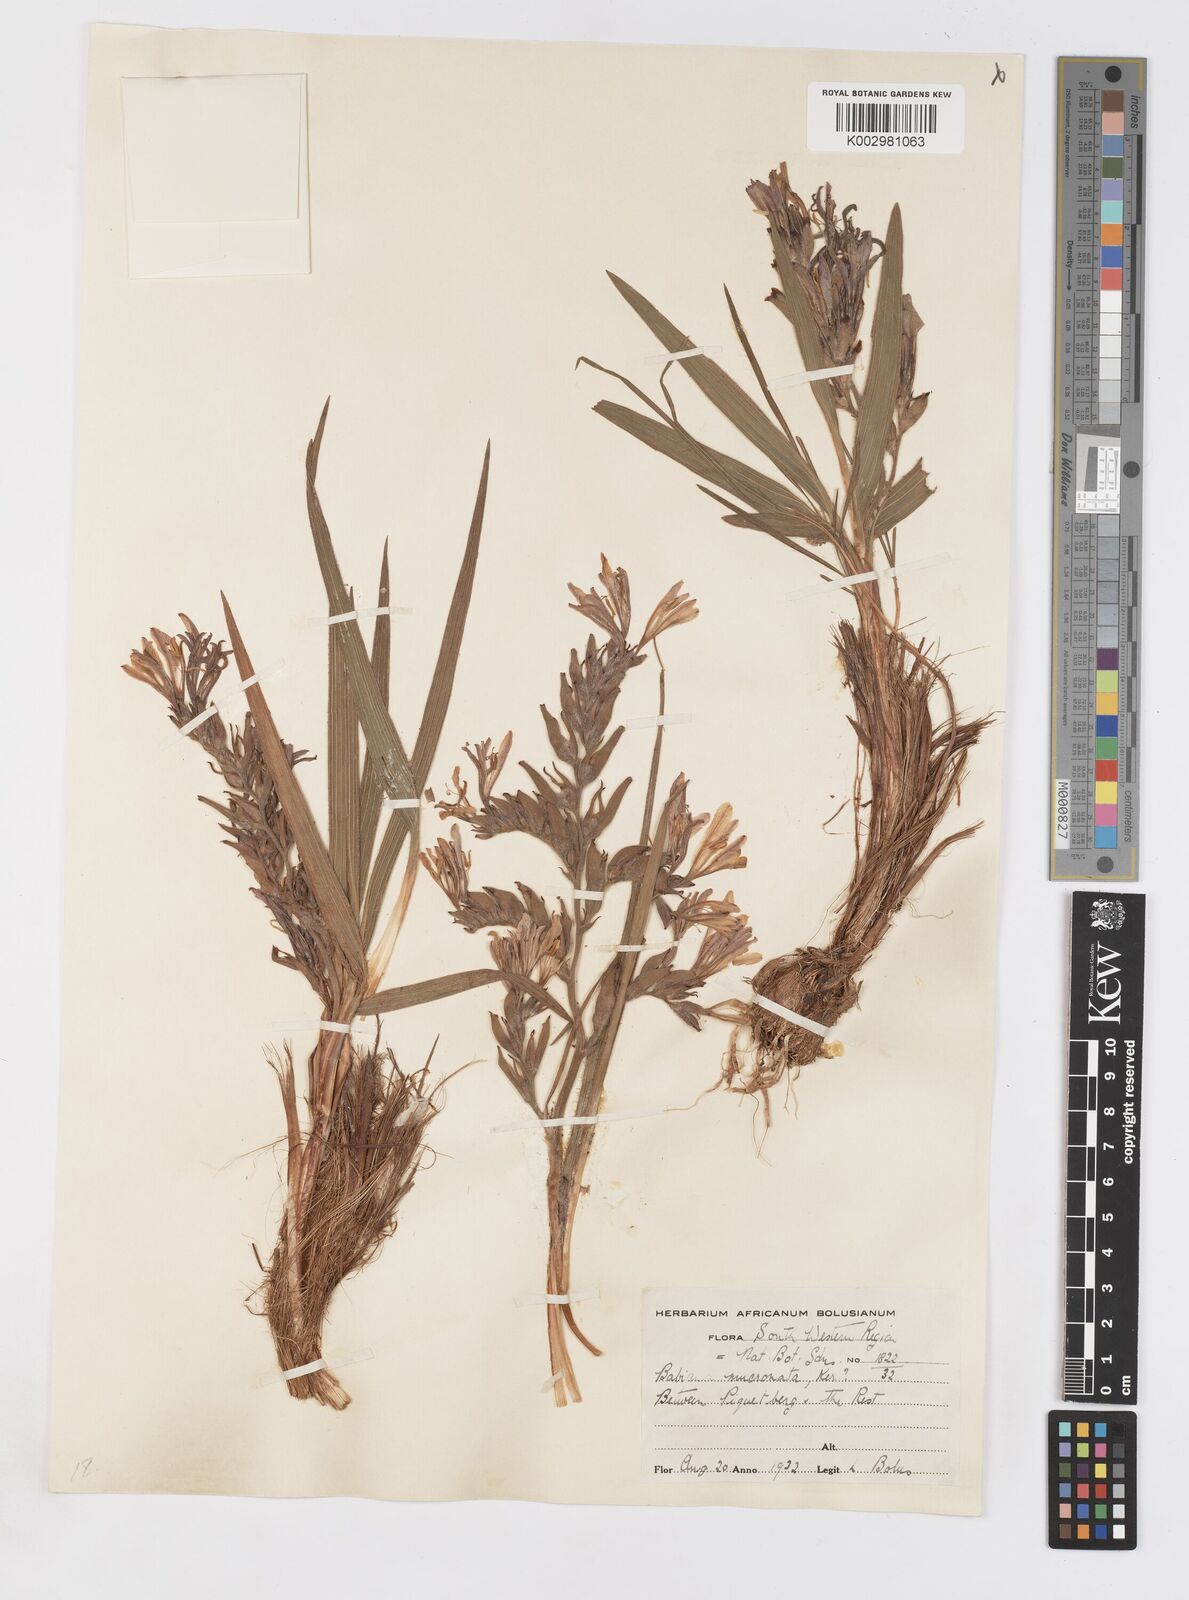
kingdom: Plantae
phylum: Tracheophyta
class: Liliopsida
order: Asparagales
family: Iridaceae
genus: Babiana
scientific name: Babiana mucronata
